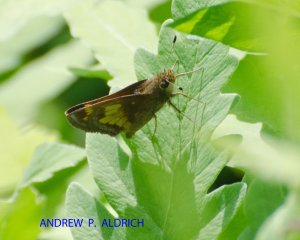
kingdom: Animalia
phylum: Arthropoda
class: Insecta
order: Lepidoptera
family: Hesperiidae
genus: Polites
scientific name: Polites coras
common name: Peck's Skipper
